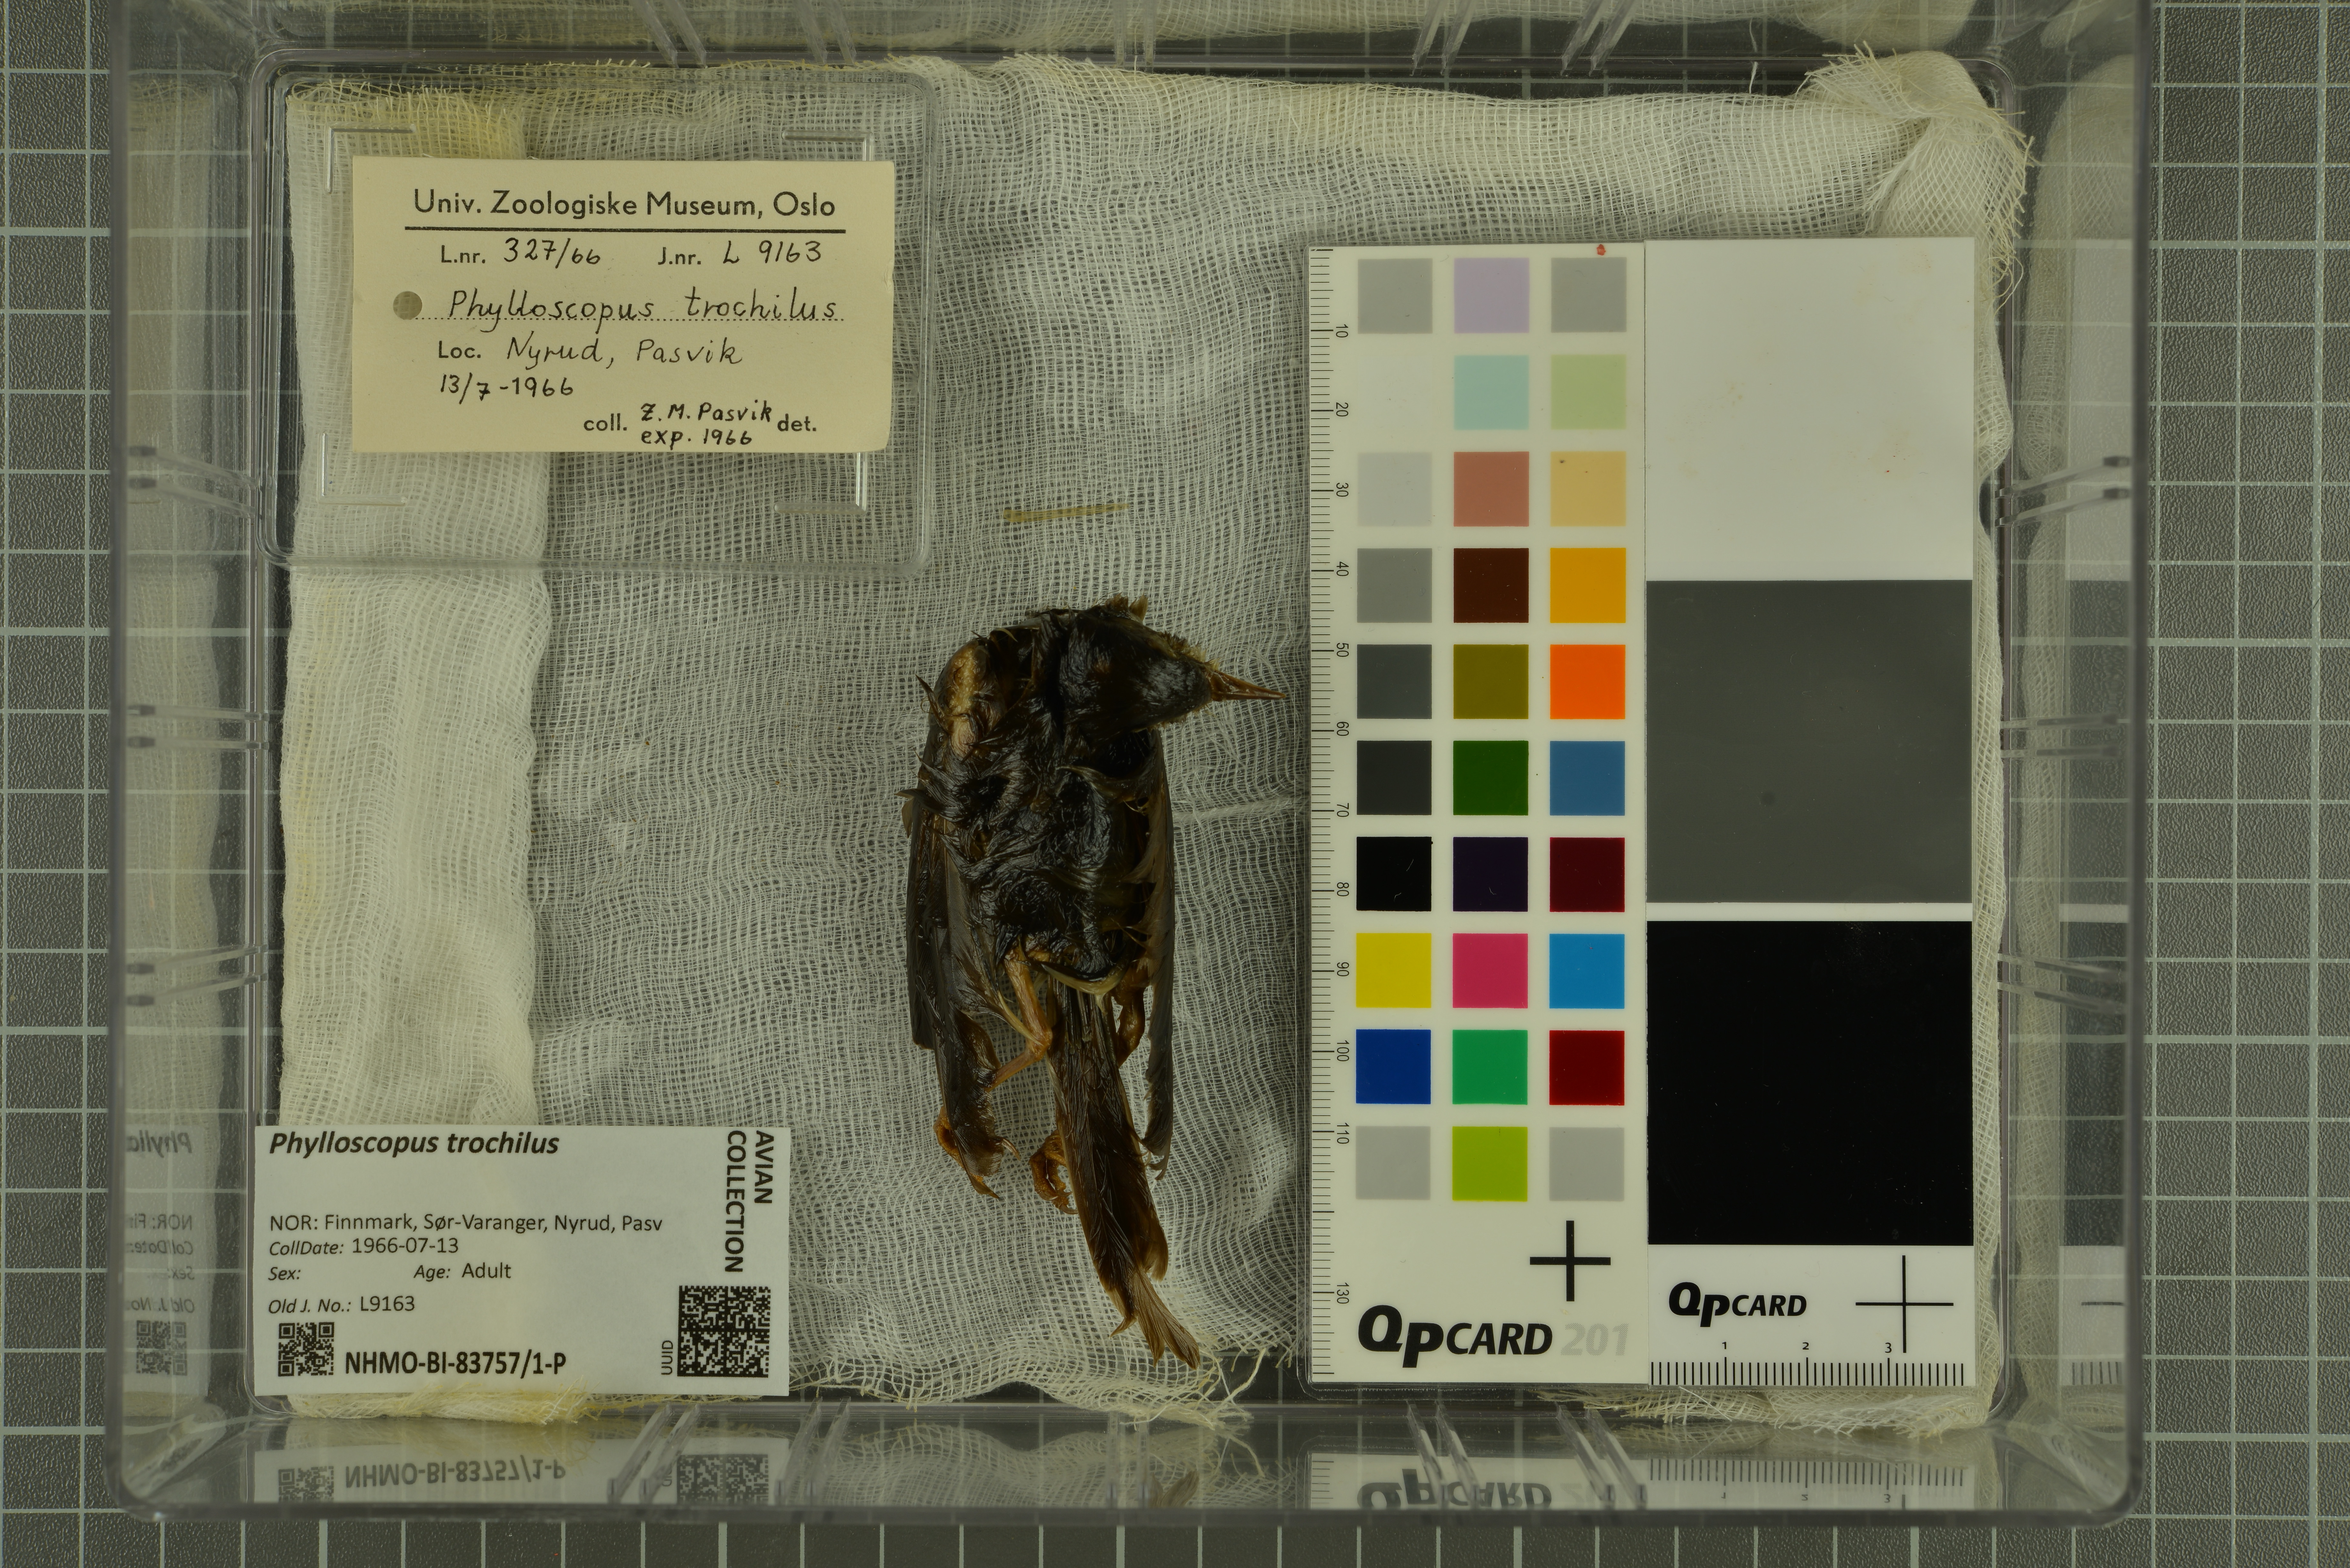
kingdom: Animalia
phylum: Chordata
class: Aves
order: Passeriformes
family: Phylloscopidae
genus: Phylloscopus
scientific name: Phylloscopus trochilus
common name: Willow warbler
